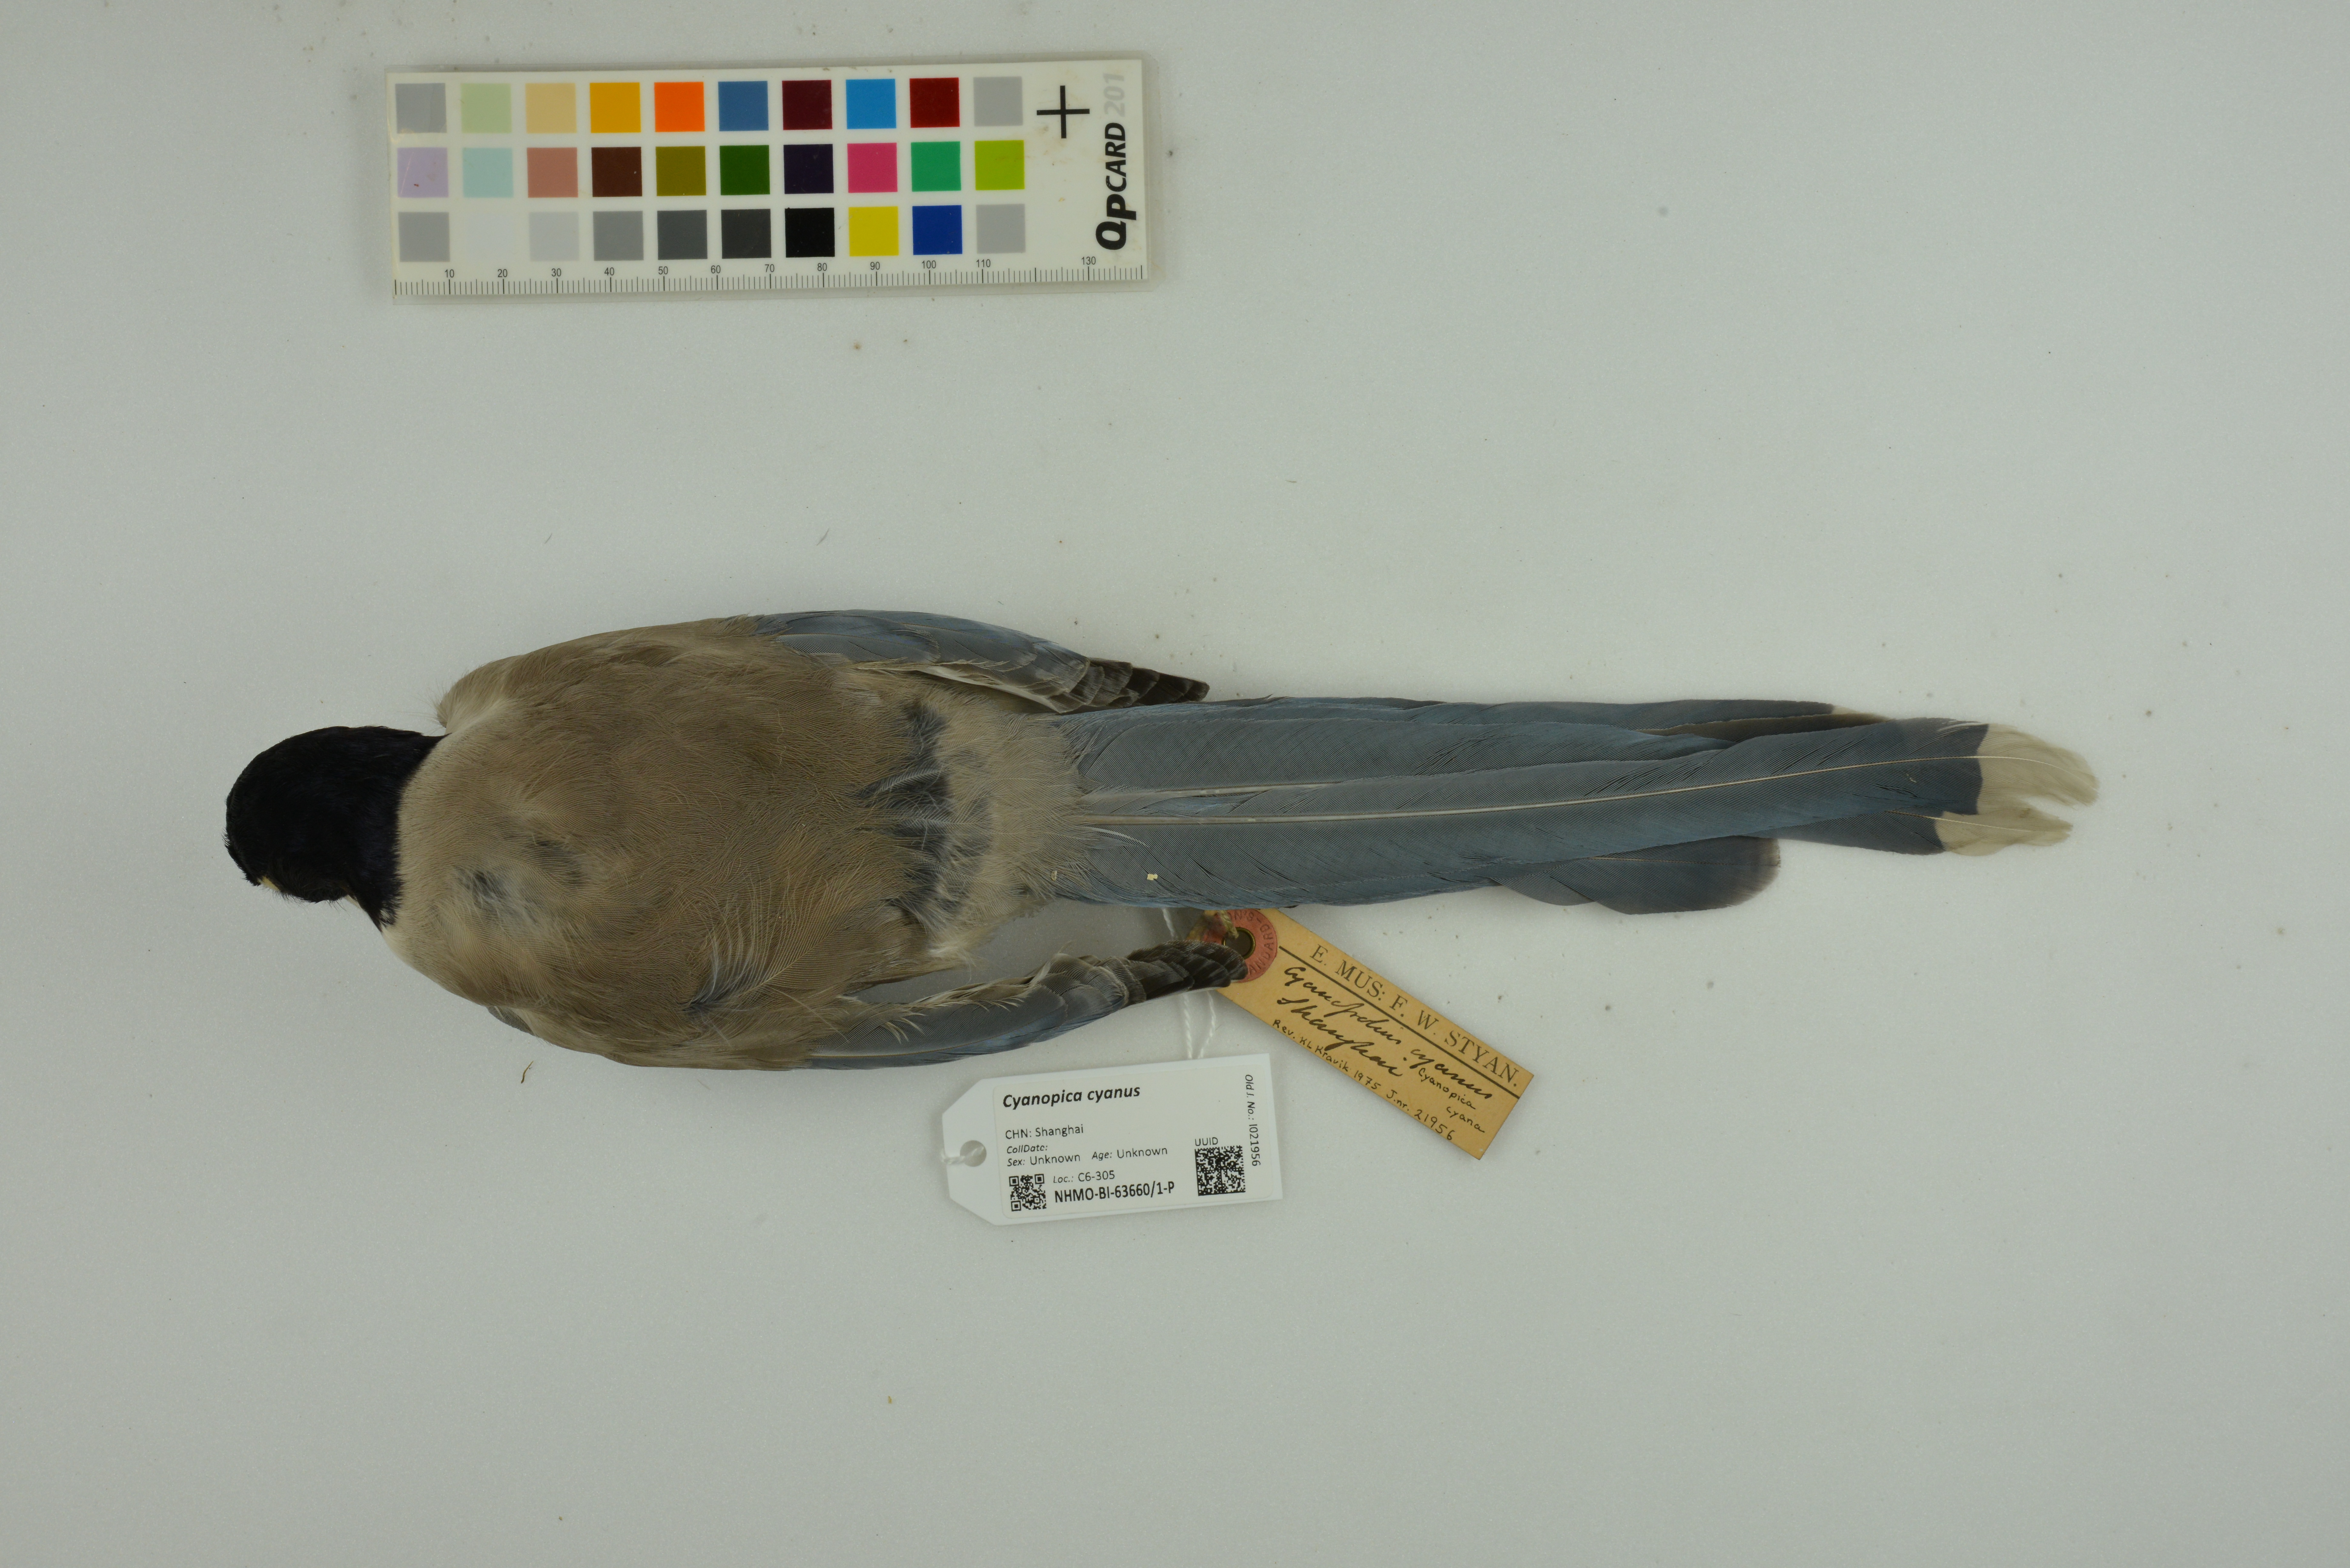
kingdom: Animalia
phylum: Chordata
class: Aves
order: Passeriformes
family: Corvidae
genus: Cyanopica
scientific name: Cyanopica cyanus
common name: Azure-winged magpie
